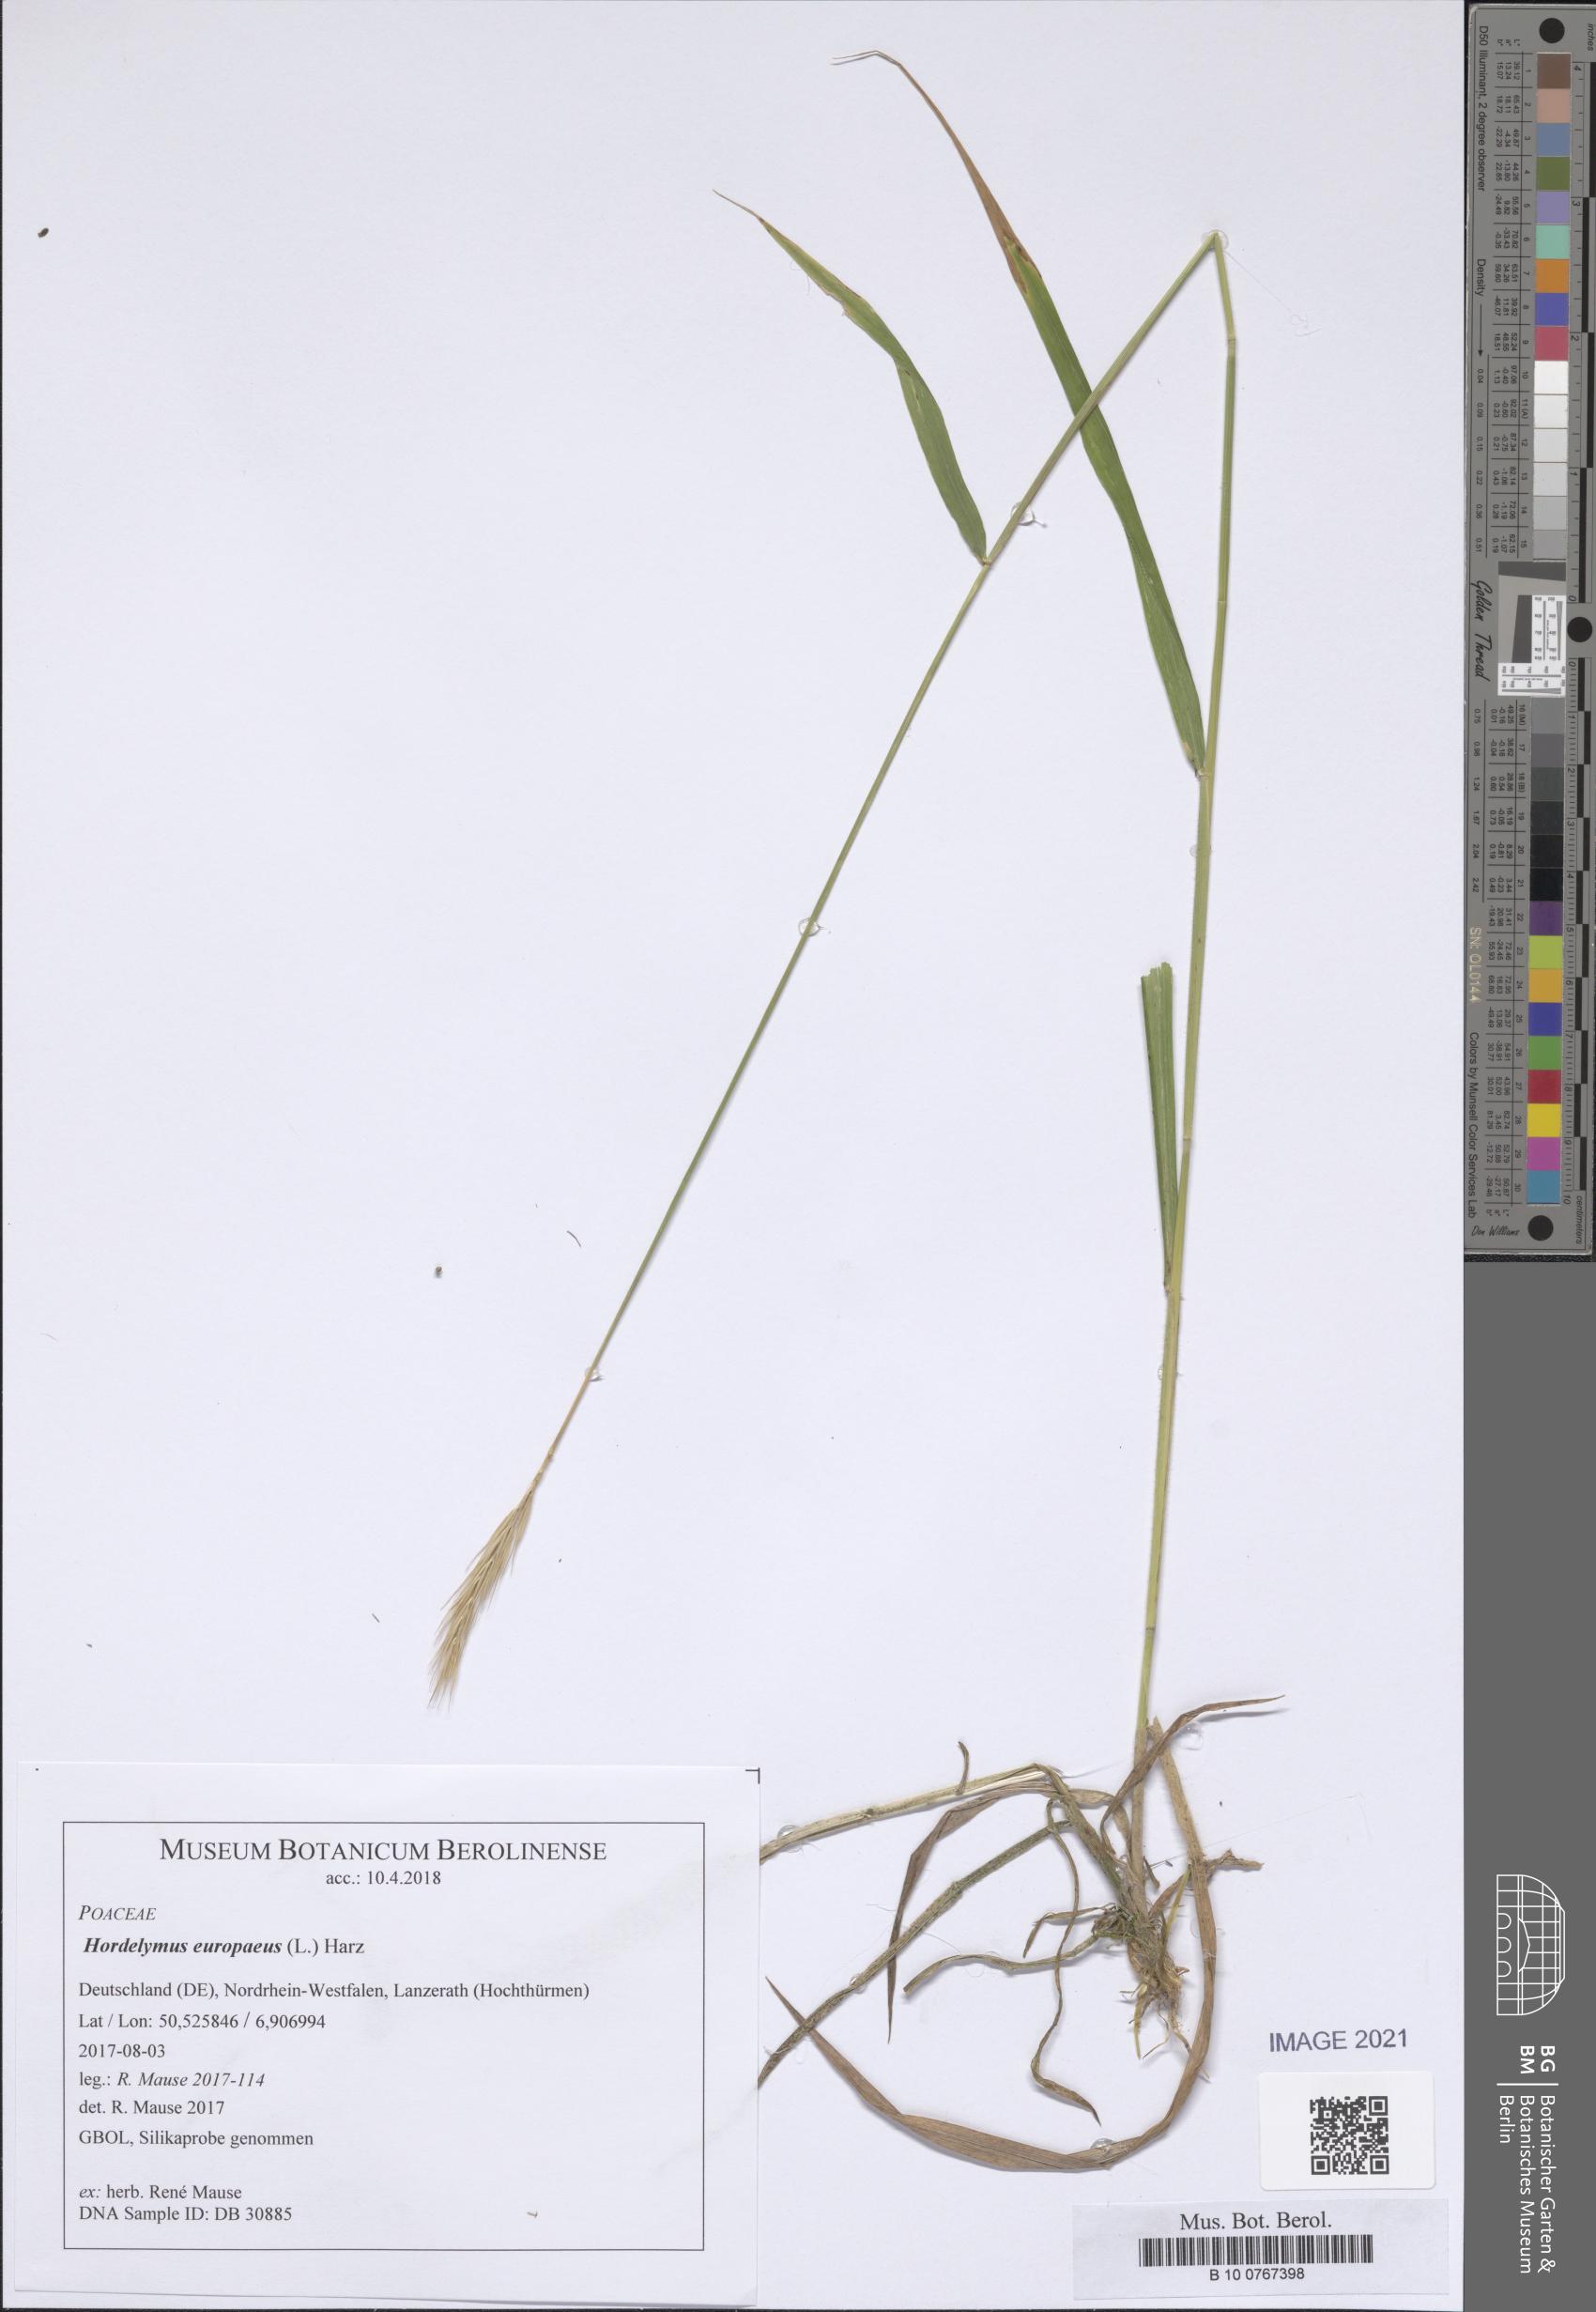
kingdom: Plantae
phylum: Tracheophyta
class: Liliopsida
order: Poales
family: Poaceae
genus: Hordelymus
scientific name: Hordelymus europaeus
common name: Wood-barley
